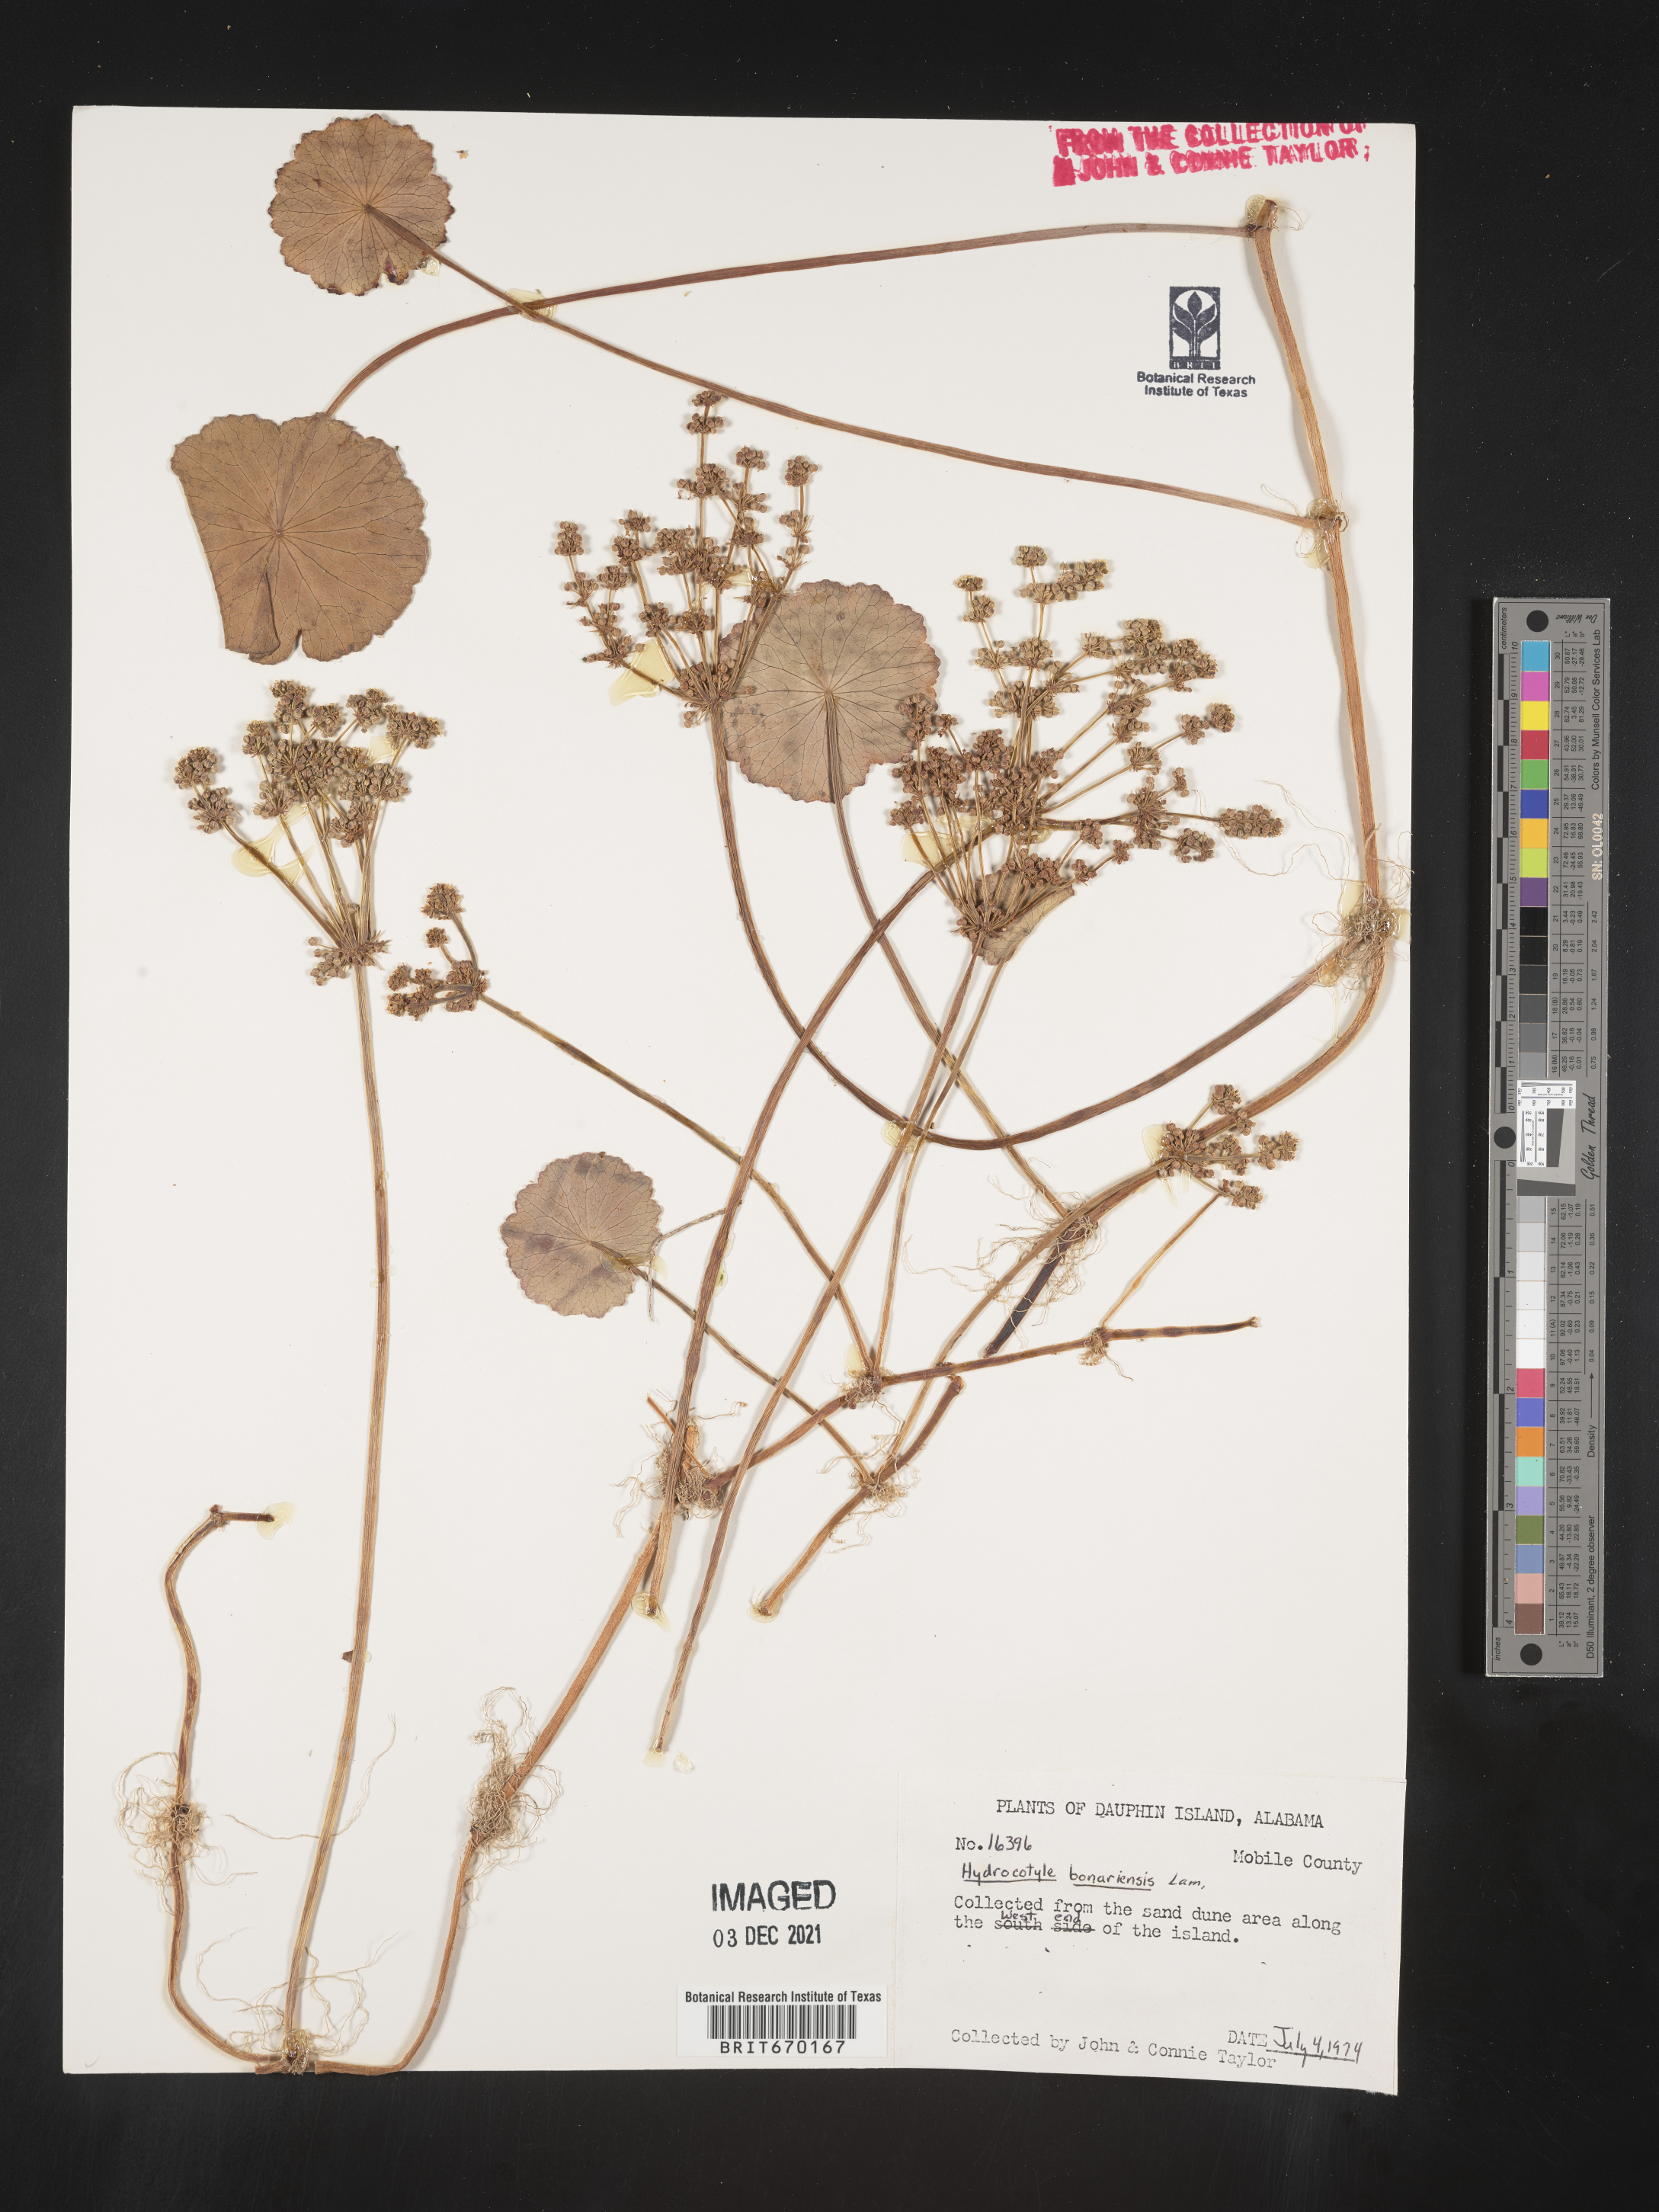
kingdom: Plantae
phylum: Tracheophyta
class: Magnoliopsida
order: Apiales
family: Araliaceae
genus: Hydrocotyle
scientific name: Hydrocotyle bonariensis
